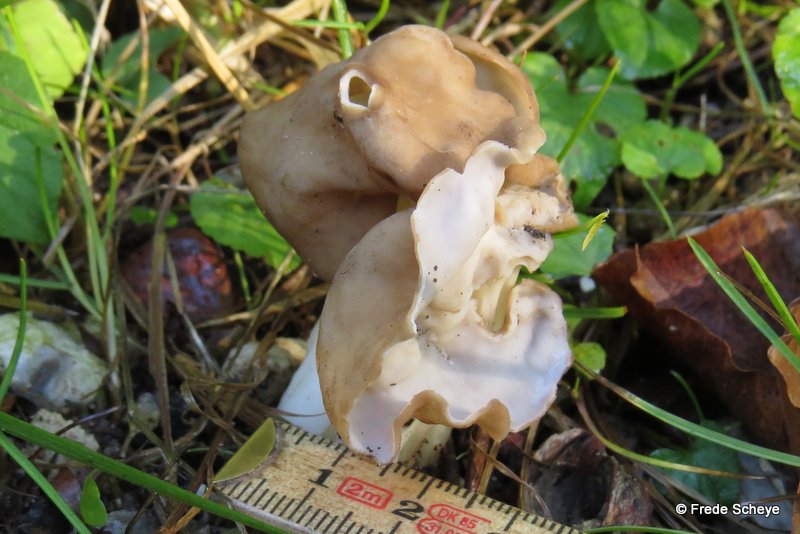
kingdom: Fungi
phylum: Ascomycota
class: Pezizomycetes
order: Pezizales
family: Helvellaceae
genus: Helvella
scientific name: Helvella crispa
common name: kruset foldhat
